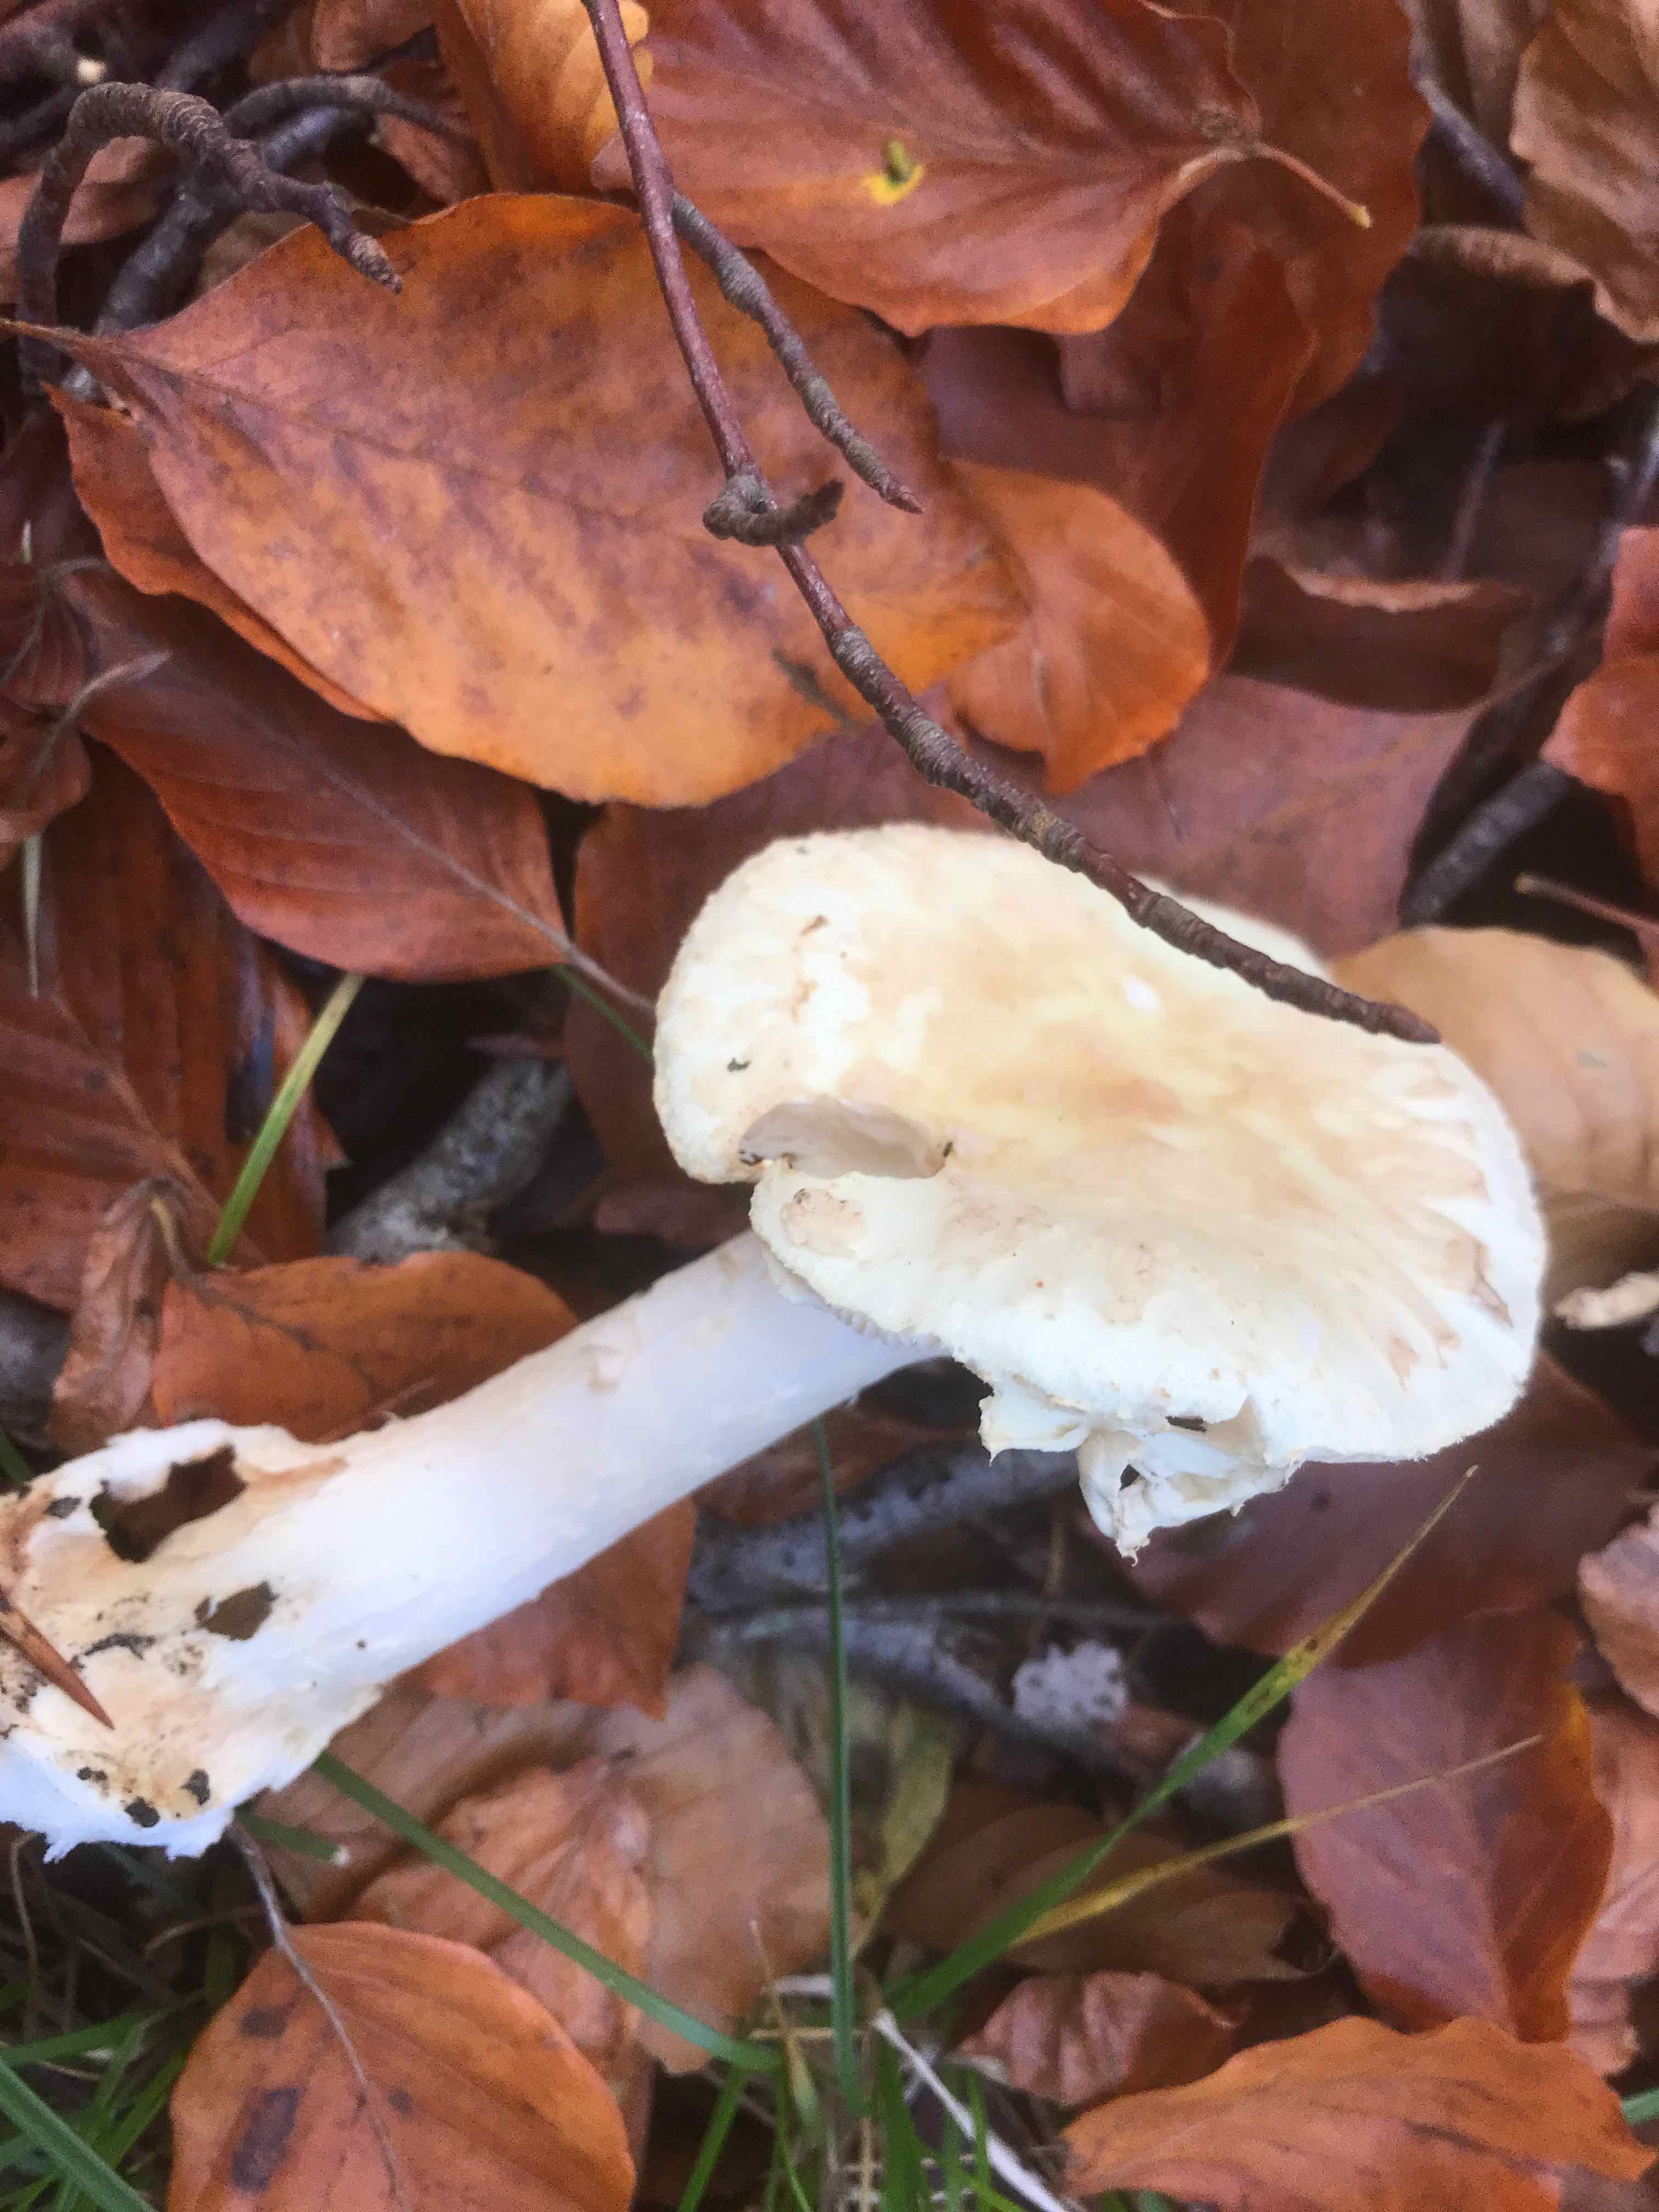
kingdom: Fungi
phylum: Basidiomycota
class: Agaricomycetes
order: Agaricales
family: Amanitaceae
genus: Amanita
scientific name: Amanita citrina
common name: kugleknoldet fluesvamp
